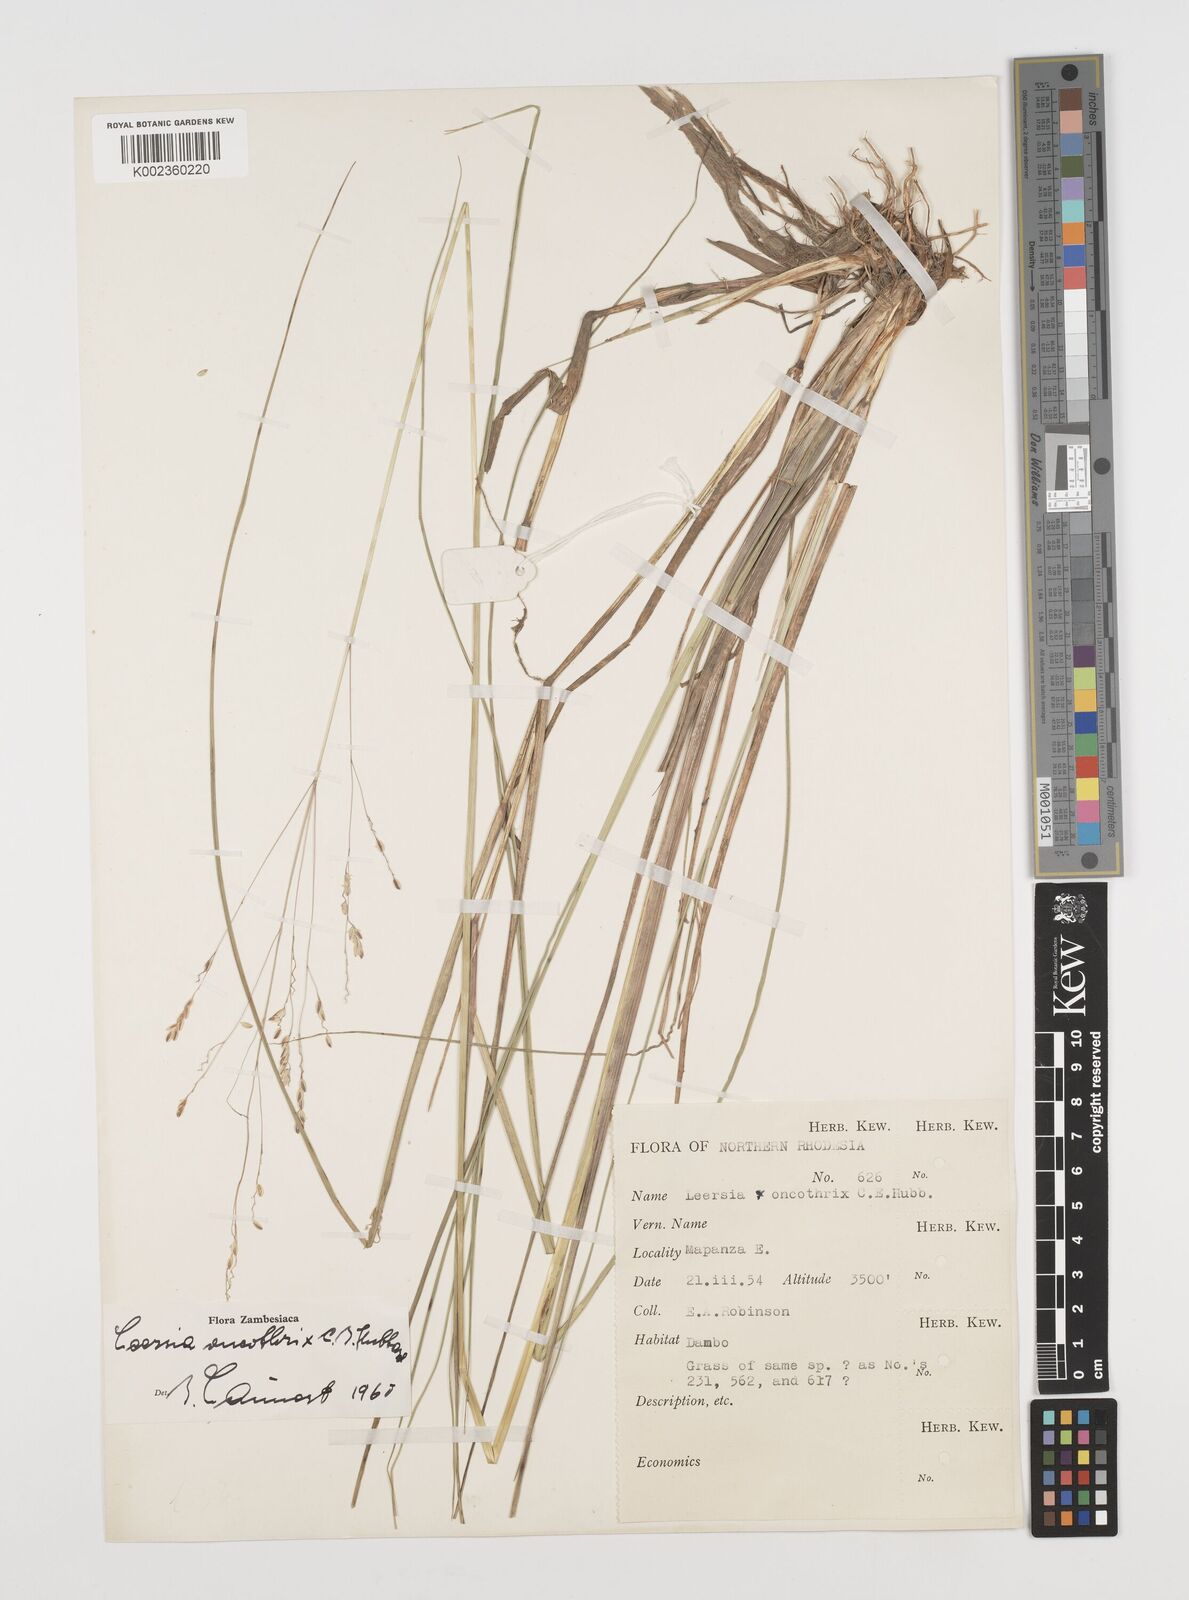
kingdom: Plantae
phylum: Tracheophyta
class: Liliopsida
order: Poales
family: Poaceae
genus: Leersia
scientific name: Leersia oncothrix
